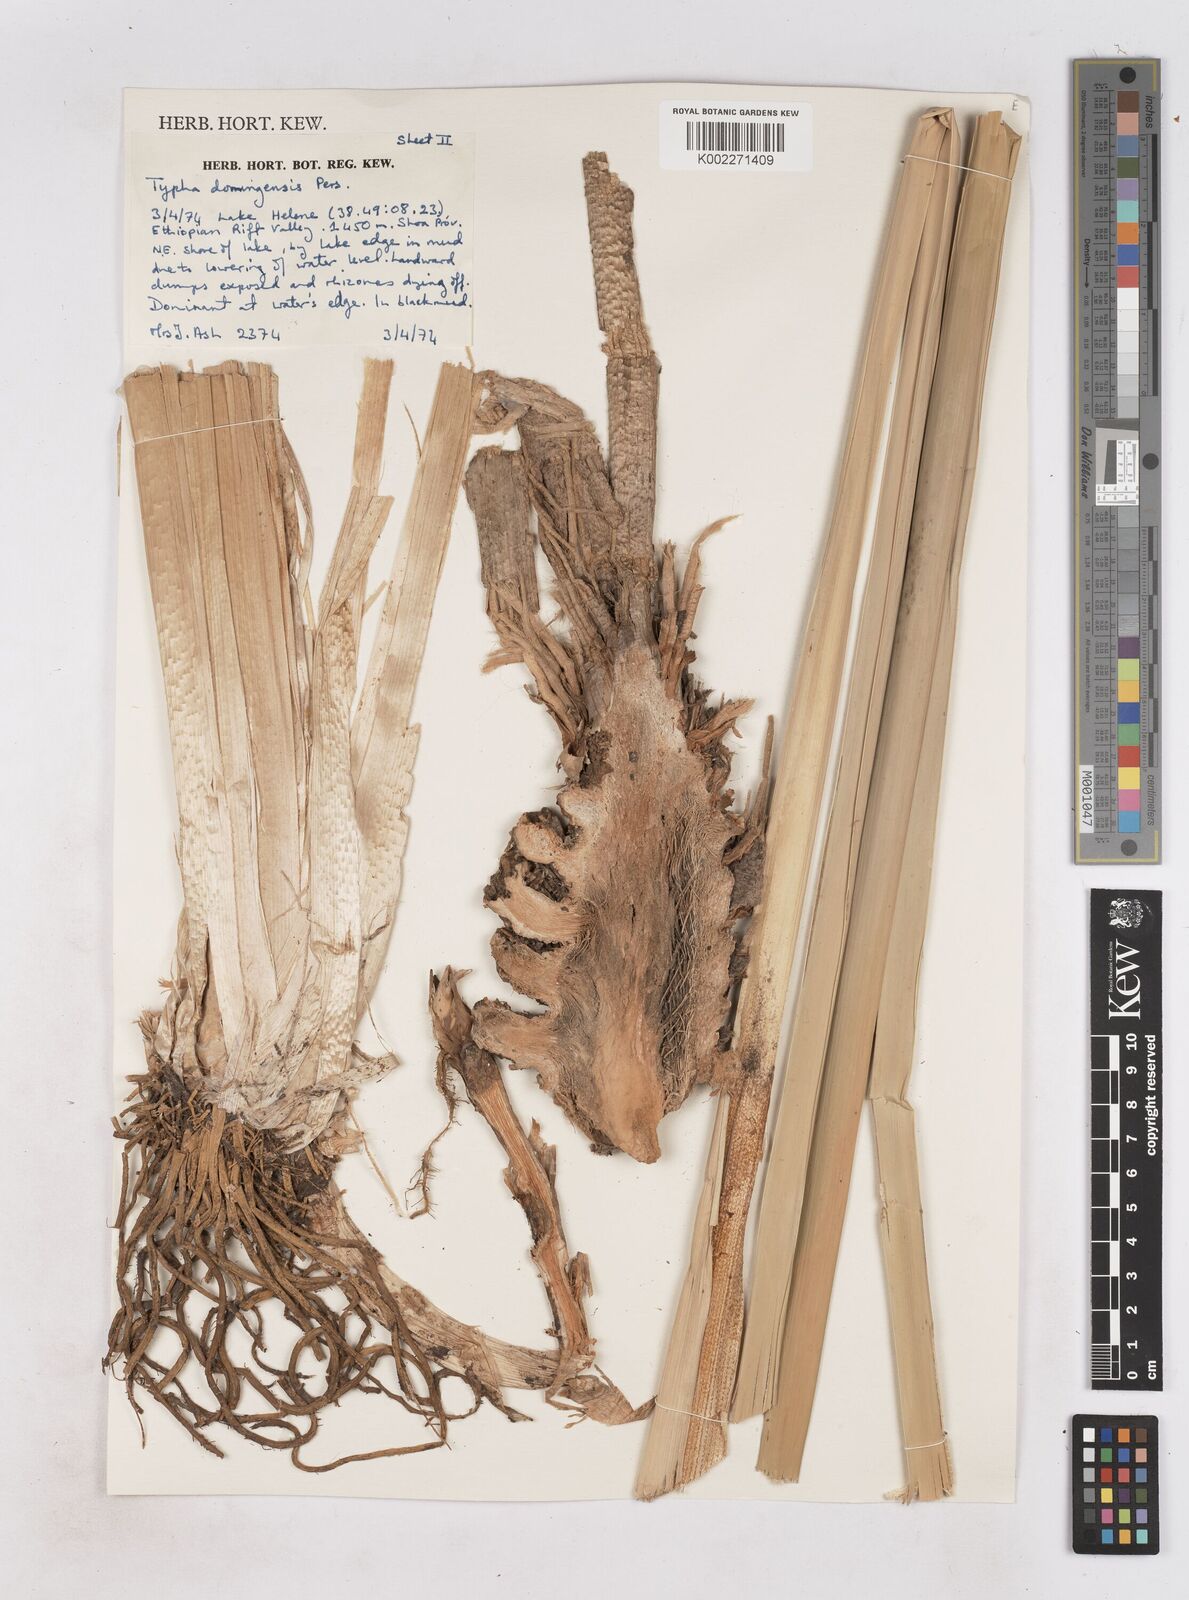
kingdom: Plantae
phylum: Tracheophyta
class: Liliopsida
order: Poales
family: Typhaceae
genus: Typha
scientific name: Typha domingensis
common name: Southern cattail
